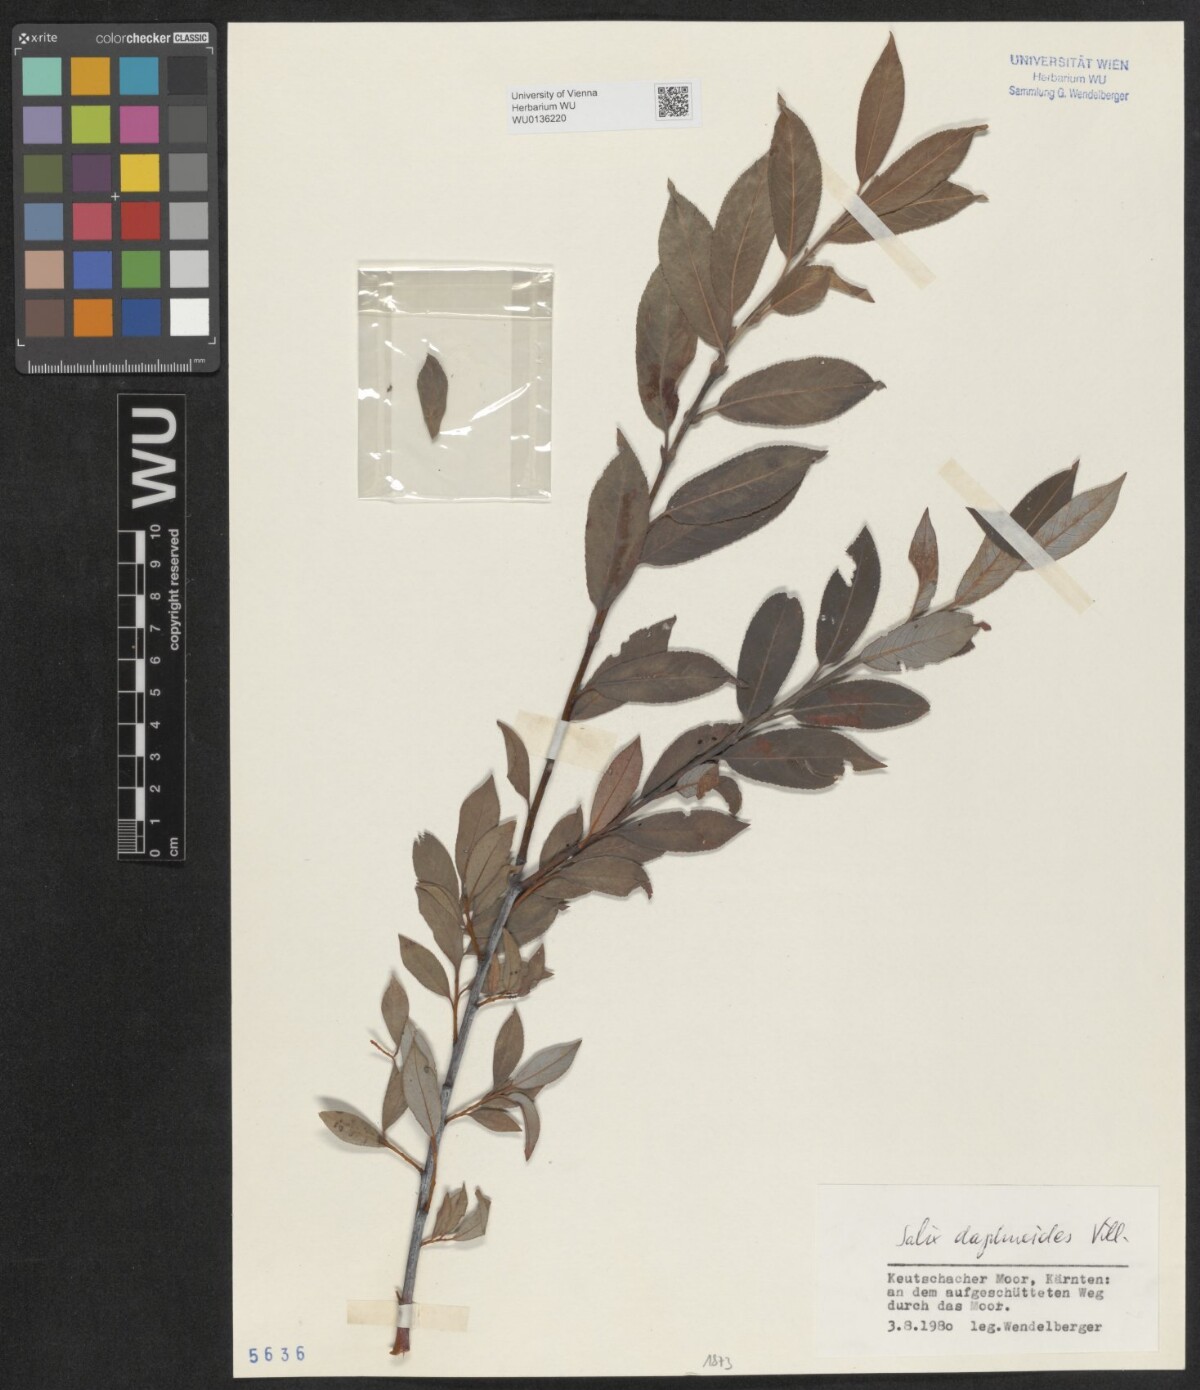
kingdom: Plantae
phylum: Tracheophyta
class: Magnoliopsida
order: Malpighiales
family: Salicaceae
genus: Salix
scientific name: Salix daphnoides
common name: European violet-willow
